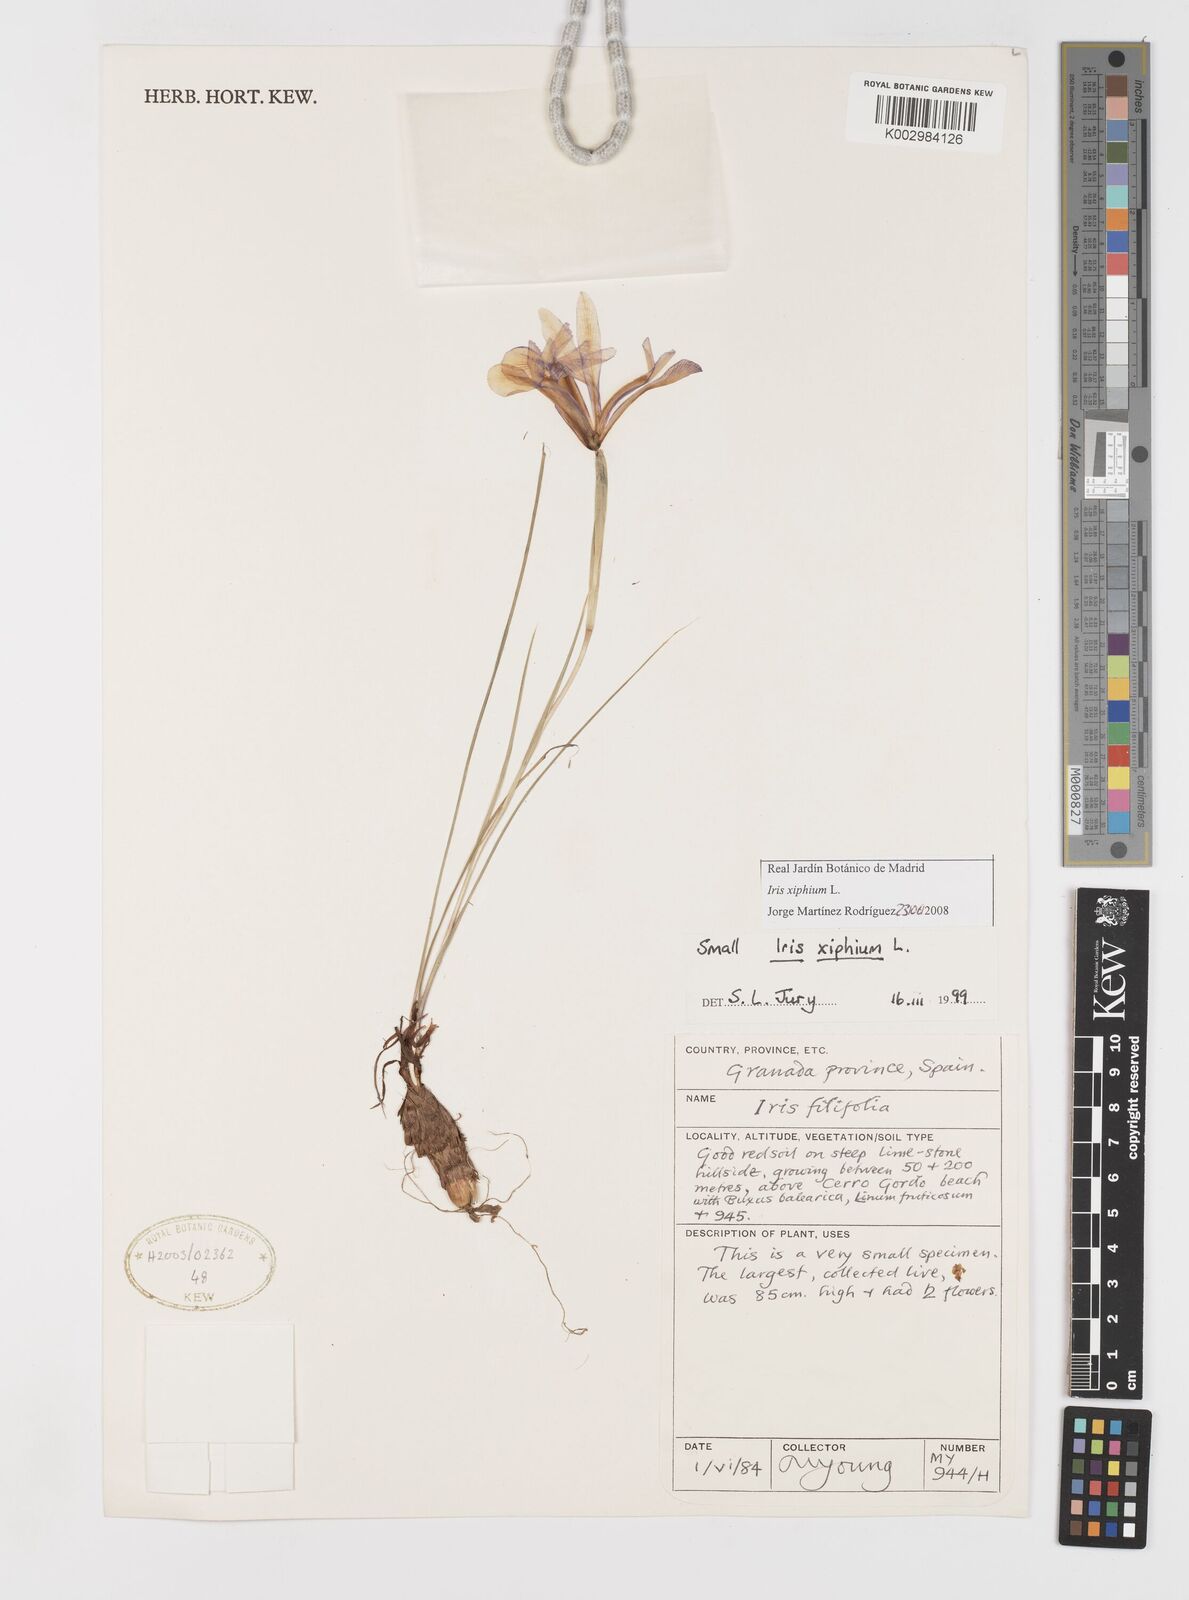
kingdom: Plantae
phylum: Tracheophyta
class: Liliopsida
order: Asparagales
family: Iridaceae
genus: Iris
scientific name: Iris xiphium
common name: Spanish iris
